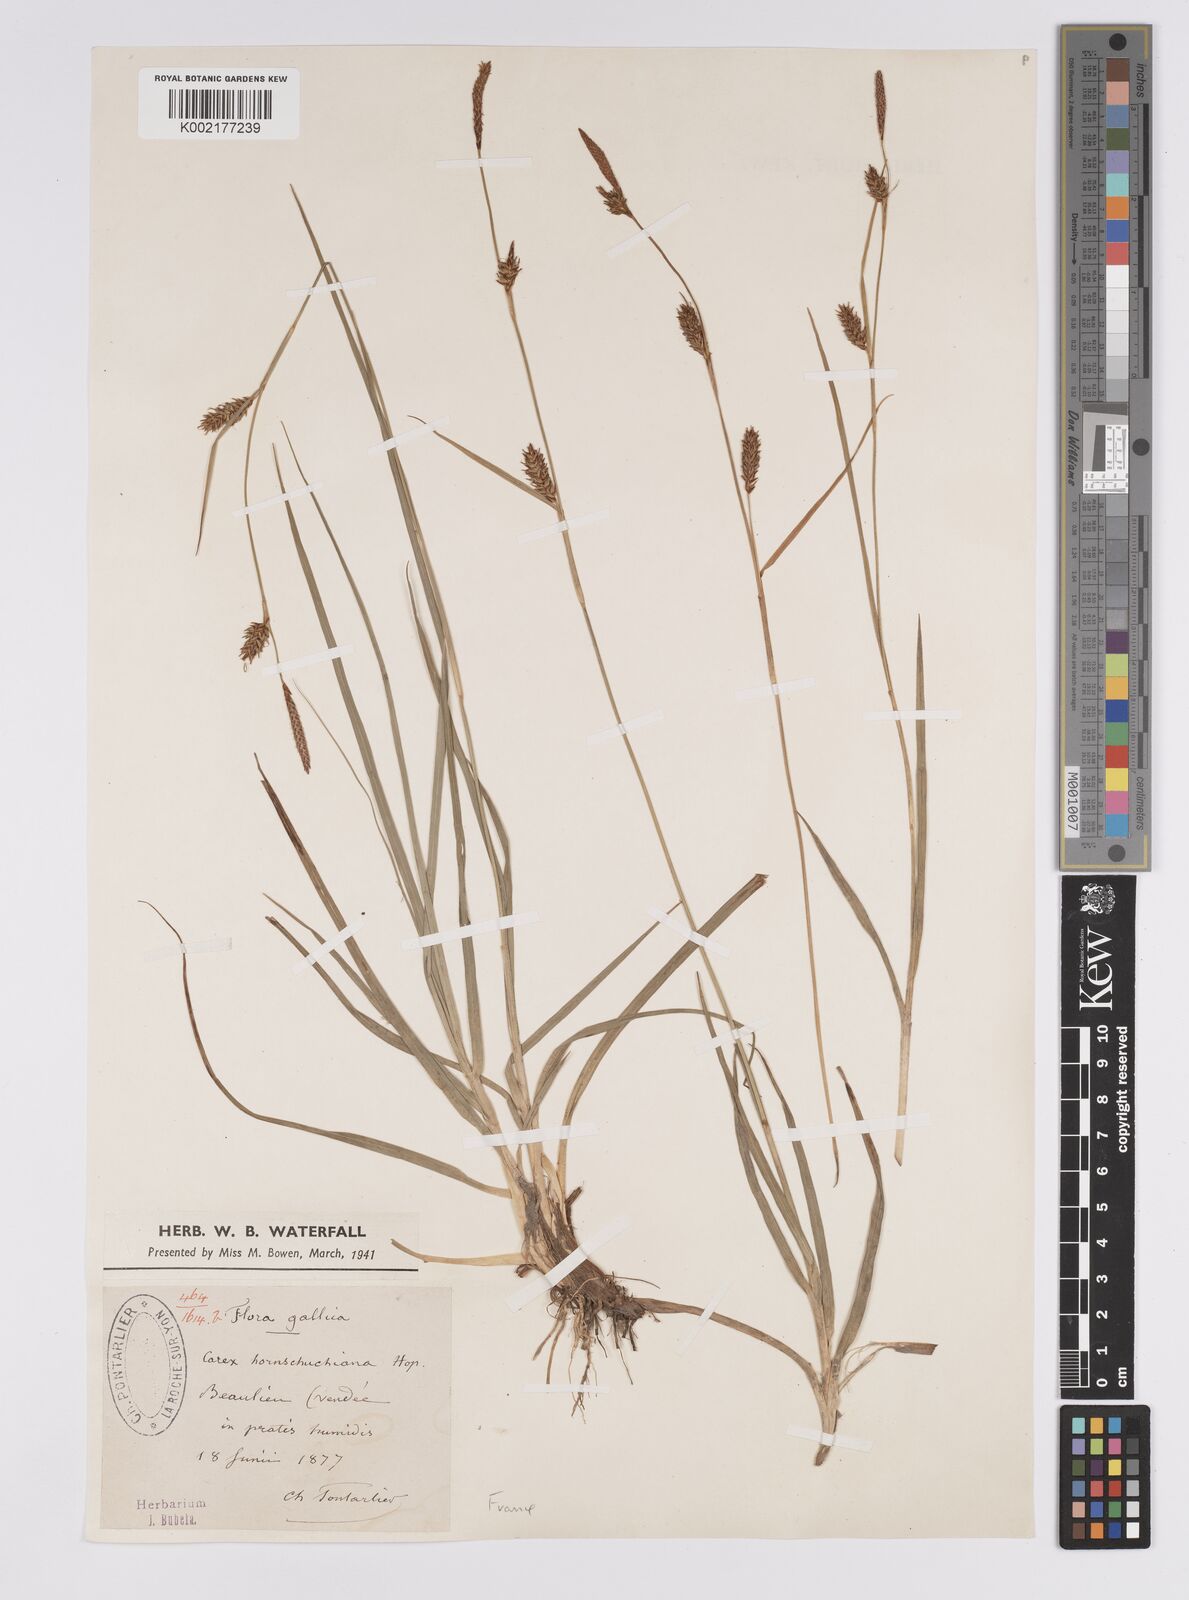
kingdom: Plantae
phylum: Tracheophyta
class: Liliopsida
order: Poales
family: Cyperaceae
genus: Carex
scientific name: Carex hostiana
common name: Tawny sedge
